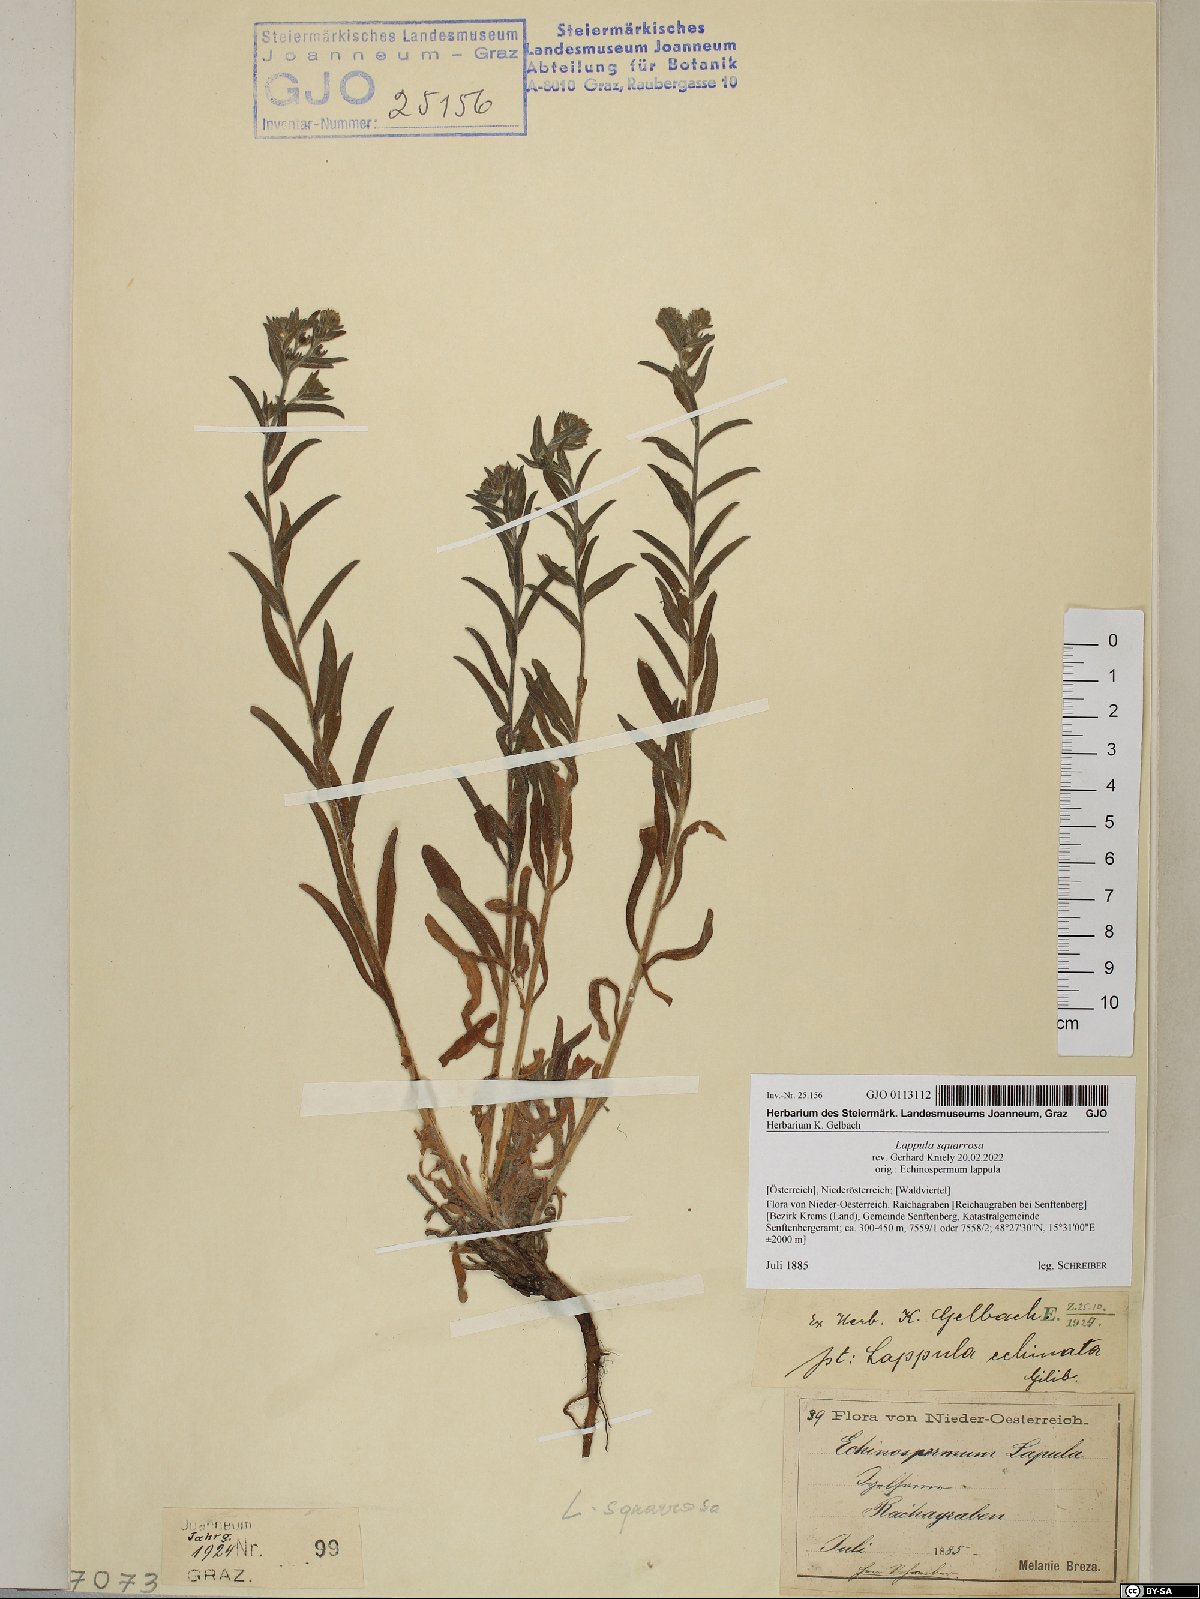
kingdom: Plantae
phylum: Tracheophyta
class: Magnoliopsida
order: Boraginales
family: Boraginaceae
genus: Lappula
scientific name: Lappula squarrosa
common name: European stickseed
